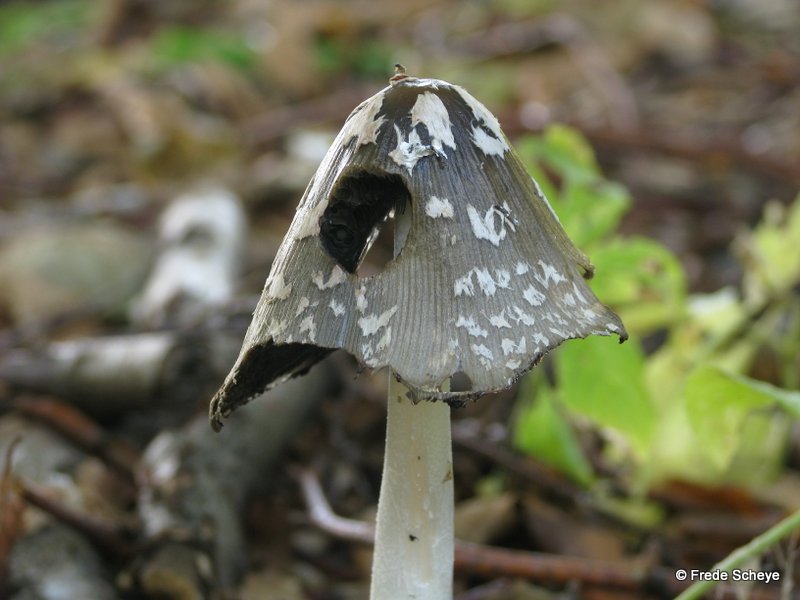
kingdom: Fungi
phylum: Basidiomycota
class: Agaricomycetes
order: Agaricales
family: Psathyrellaceae
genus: Coprinopsis
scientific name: Coprinopsis picacea
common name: skade-blækhat
